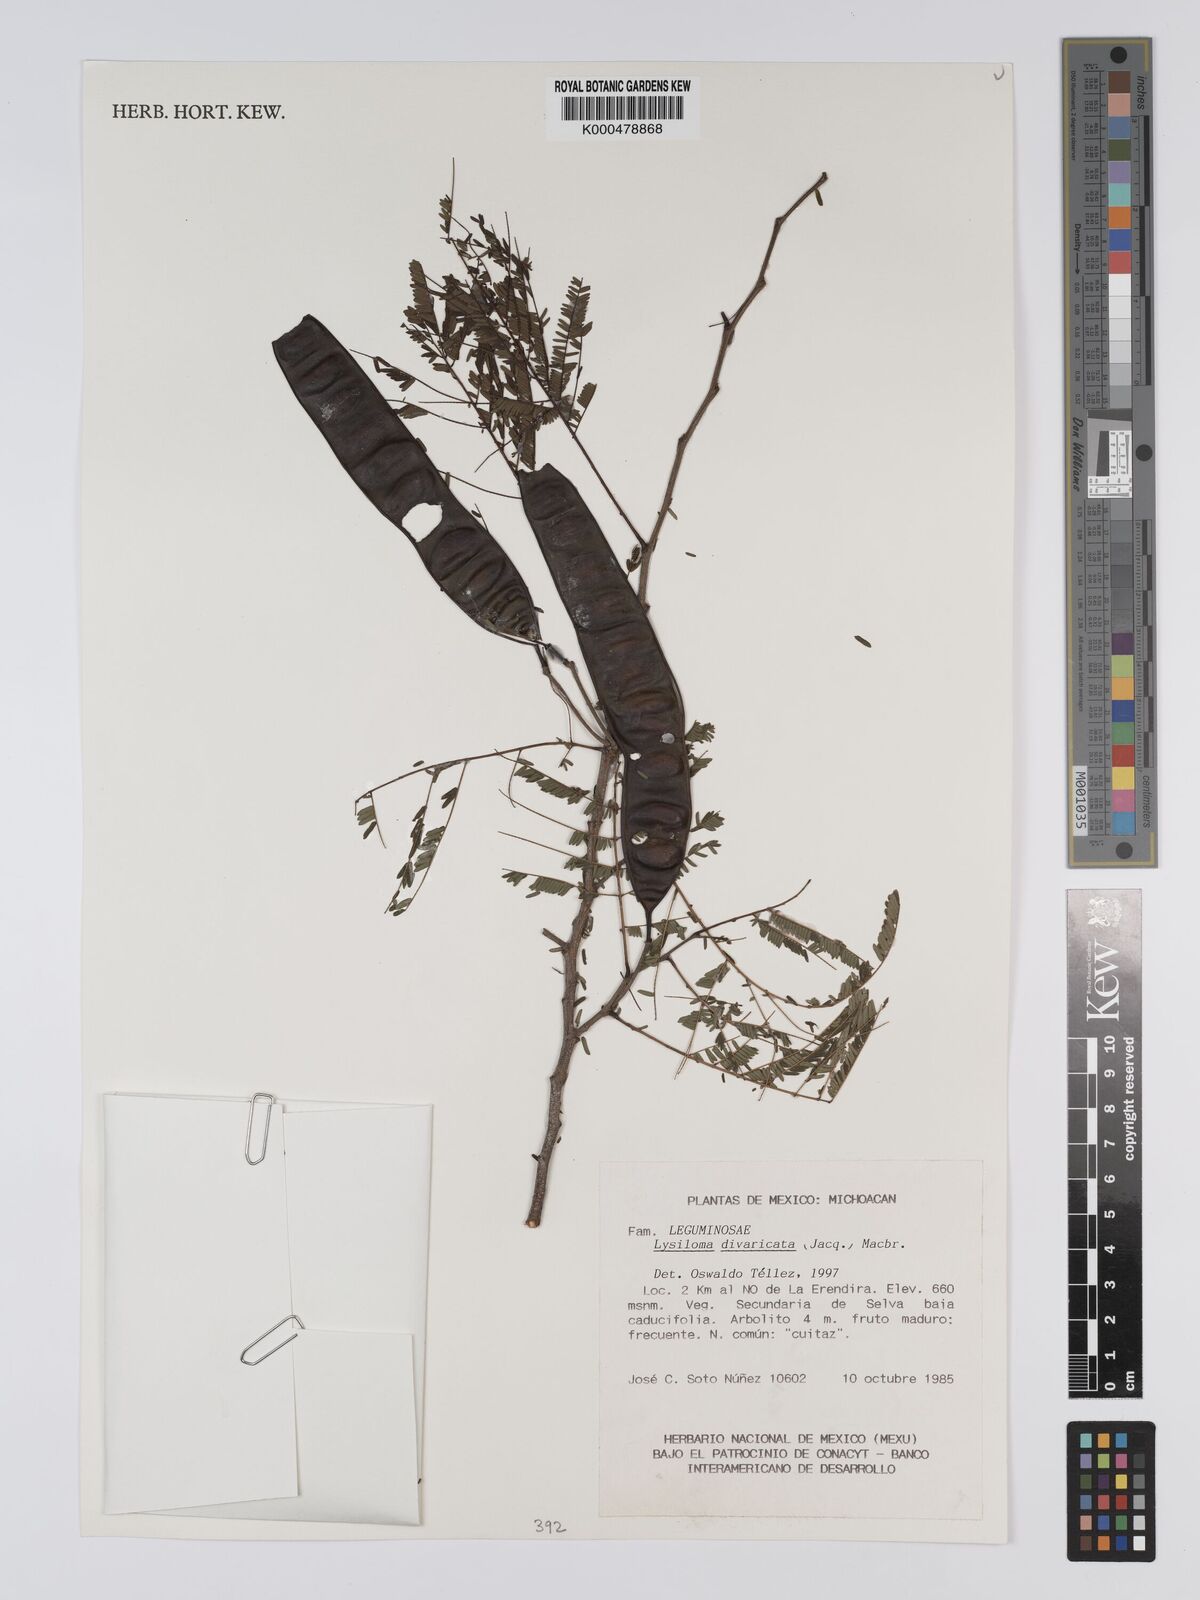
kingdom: Plantae
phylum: Tracheophyta
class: Magnoliopsida
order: Fabales
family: Fabaceae
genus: Lysiloma
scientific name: Lysiloma divaricatum
